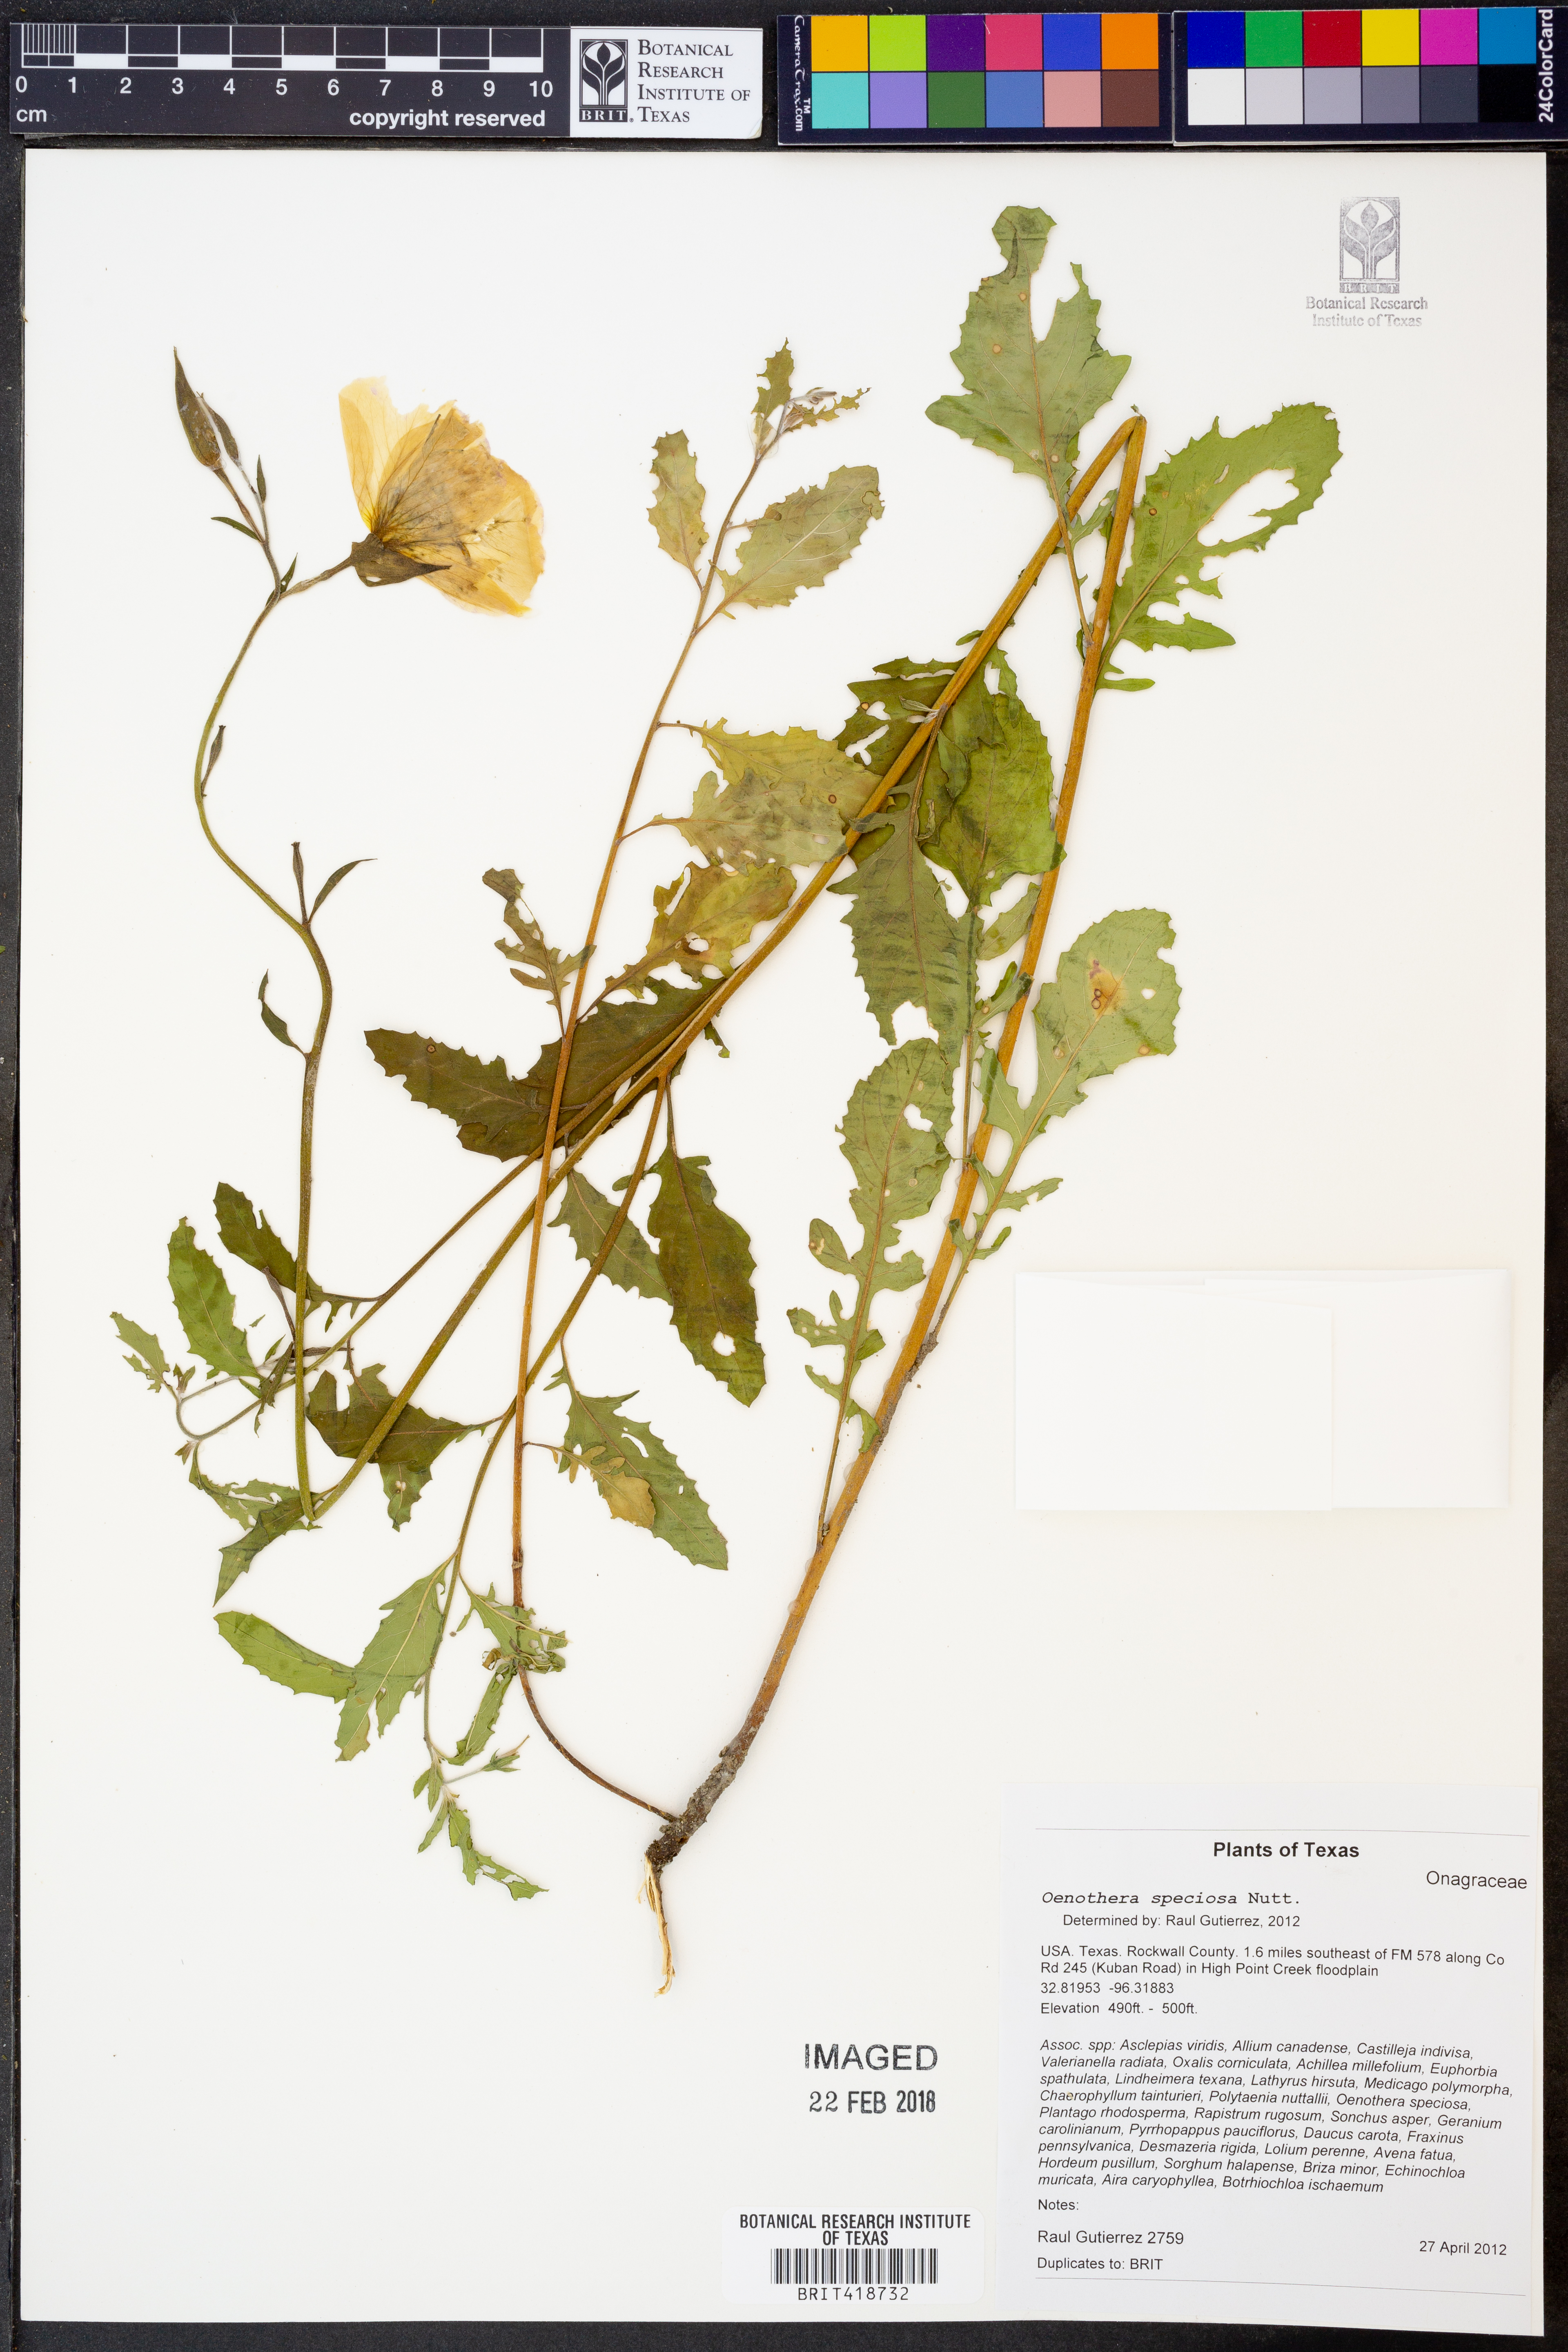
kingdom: Plantae
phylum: Tracheophyta
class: Magnoliopsida
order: Myrtales
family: Onagraceae
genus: Oenothera
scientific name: Oenothera speciosa
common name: White evening-primrose
